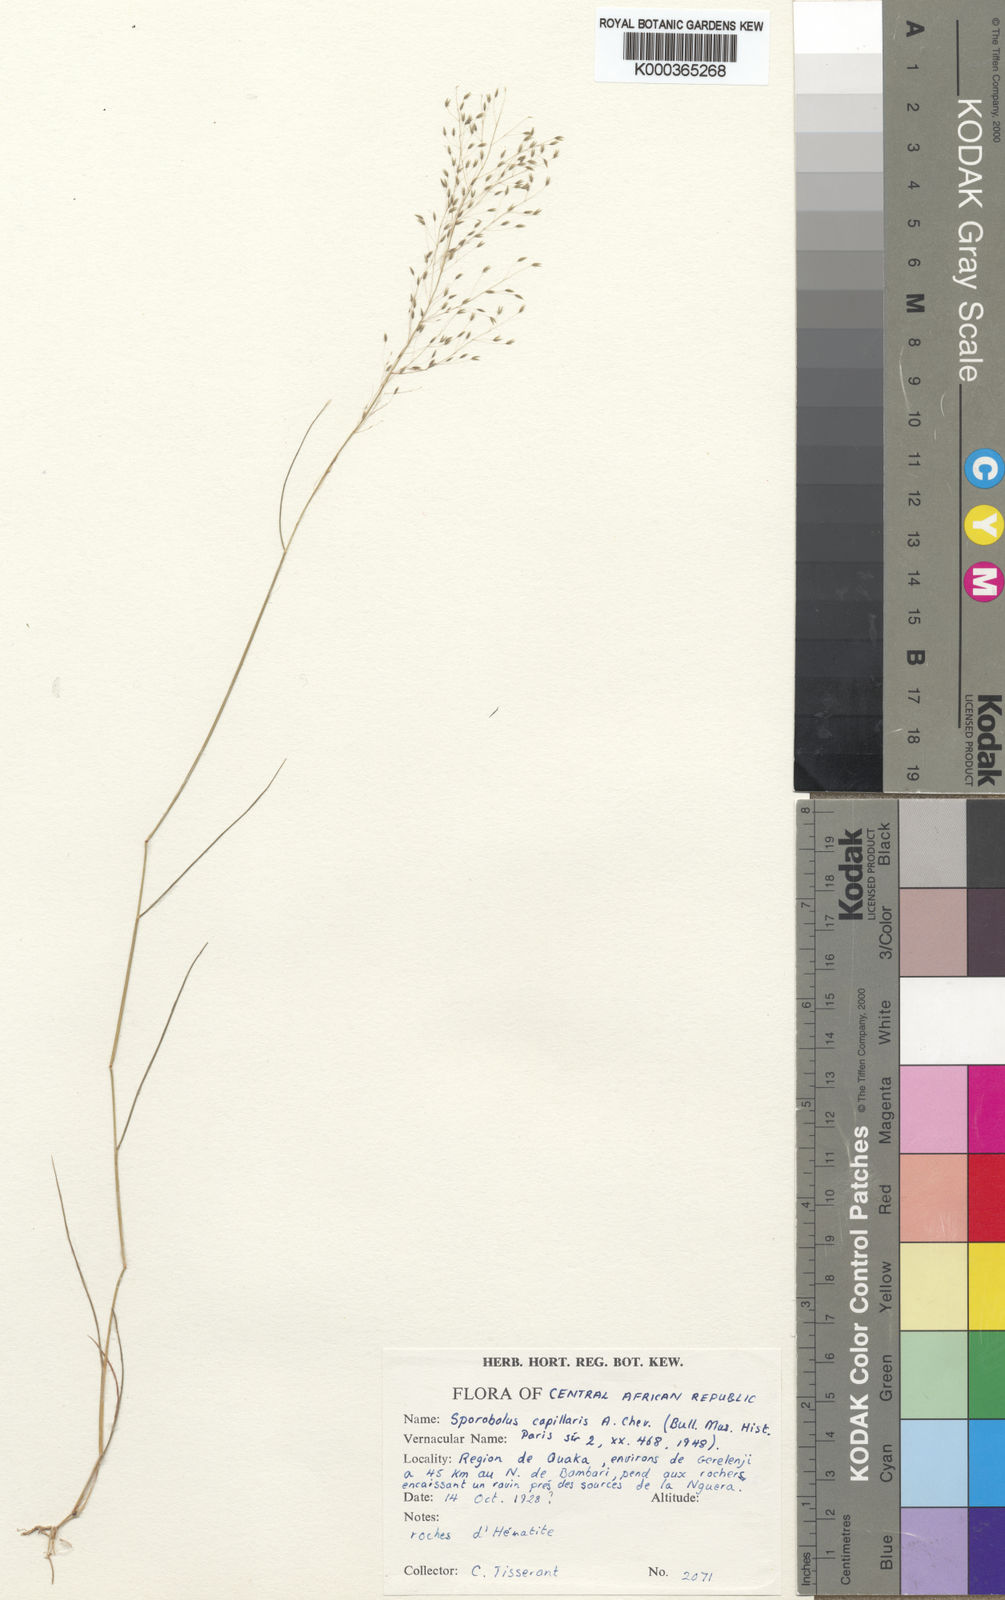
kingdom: Plantae
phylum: Tracheophyta
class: Liliopsida
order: Poales
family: Poaceae
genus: Sporobolus
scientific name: Sporobolus pectinellus
